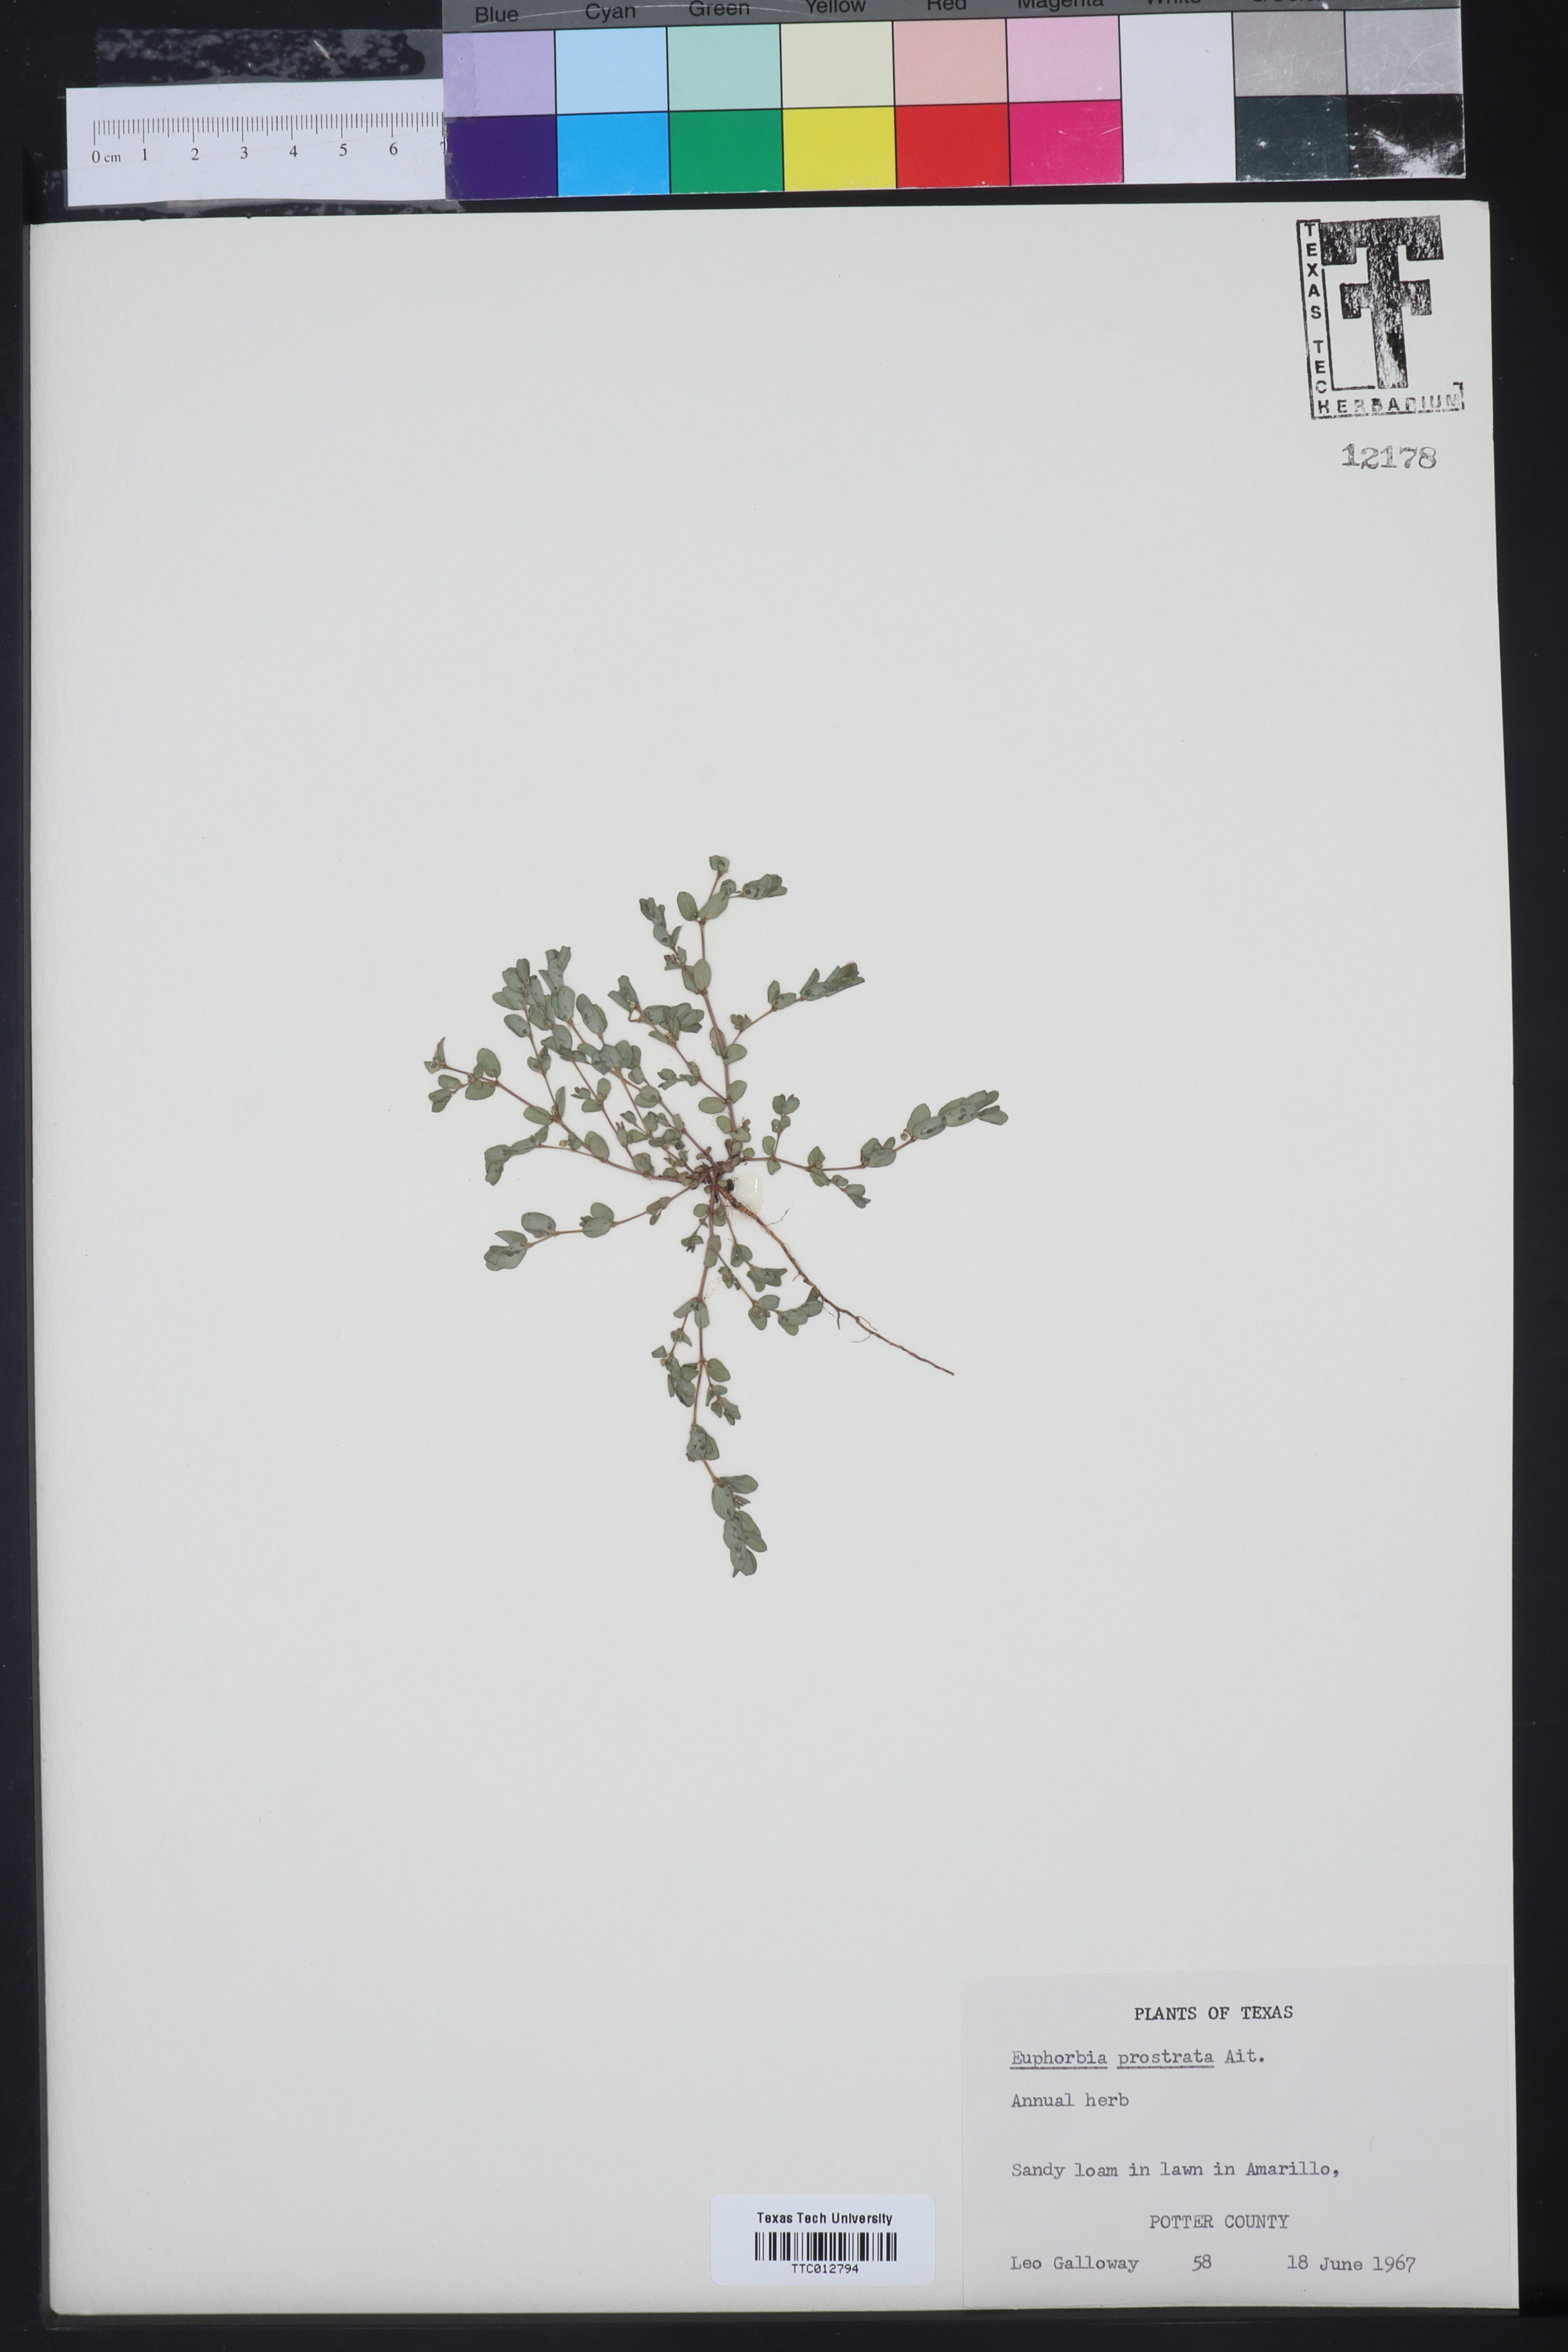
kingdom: Plantae
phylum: Tracheophyta
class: Magnoliopsida
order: Malpighiales
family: Euphorbiaceae
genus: Euphorbia
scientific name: Euphorbia prostrata
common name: Prostrate sandmat
